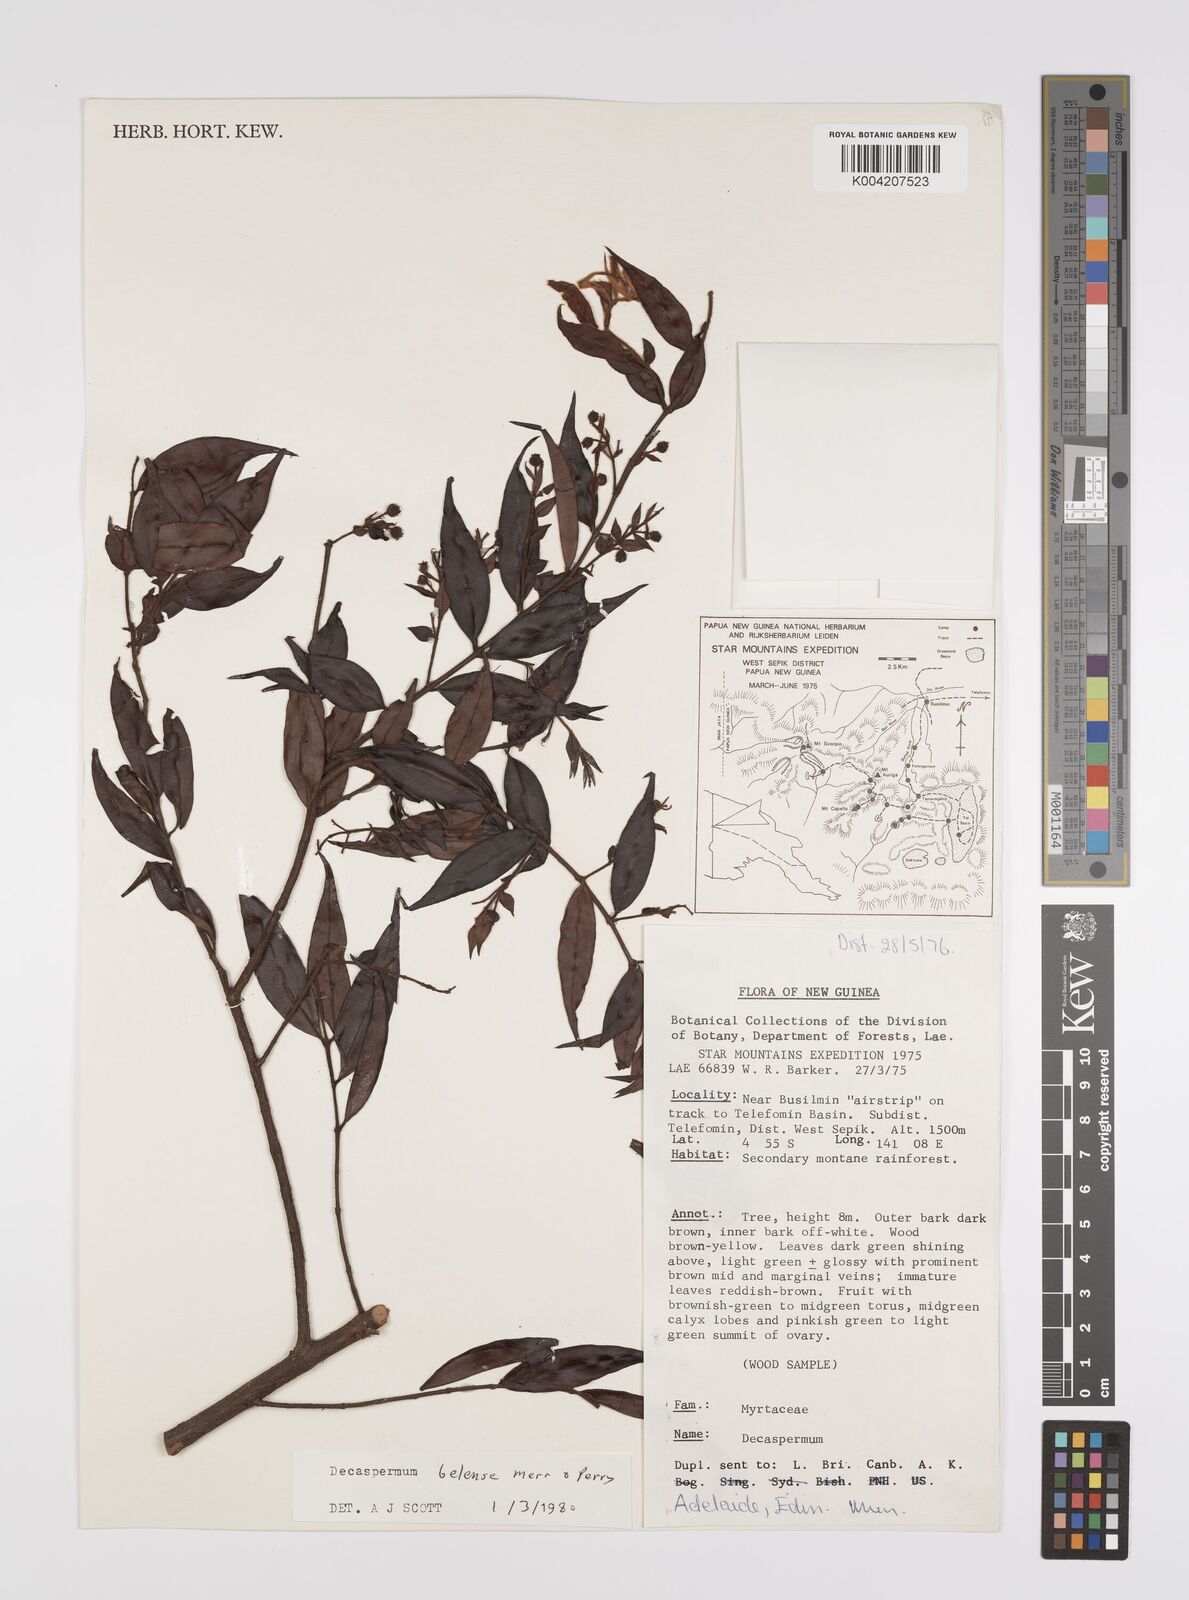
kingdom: Plantae
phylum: Tracheophyta
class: Magnoliopsida
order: Myrtales
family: Myrtaceae
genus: Decaspermum
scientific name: Decaspermum belense
